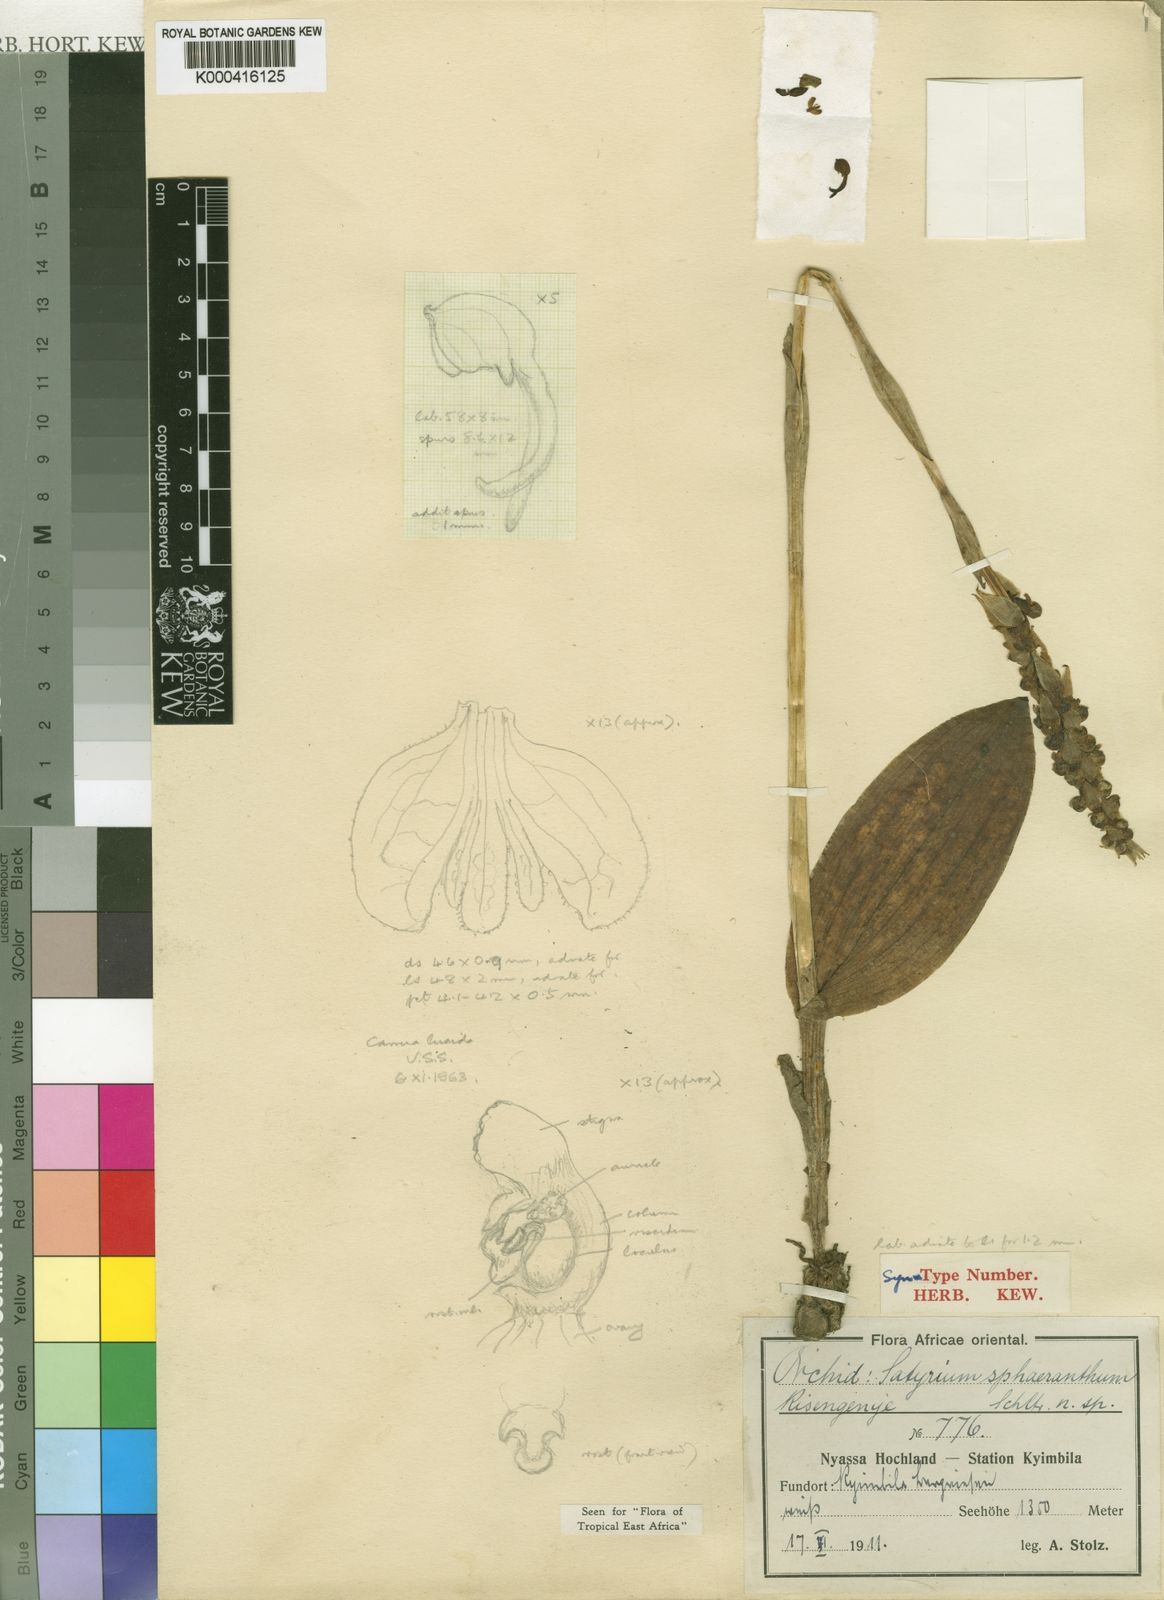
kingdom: Plantae
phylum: Tracheophyta
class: Liliopsida
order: Asparagales
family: Orchidaceae
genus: Satyrium
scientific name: Satyrium sphaeranthum
